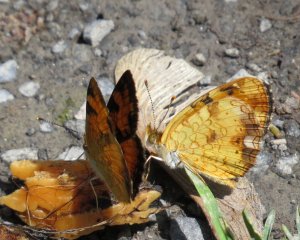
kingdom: Animalia
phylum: Arthropoda
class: Insecta
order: Lepidoptera
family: Nymphalidae
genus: Phyciodes
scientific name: Phyciodes tharos
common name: Northern Crescent
